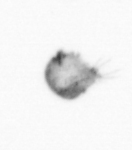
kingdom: Animalia
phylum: Arthropoda
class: Copepoda
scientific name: Copepoda
